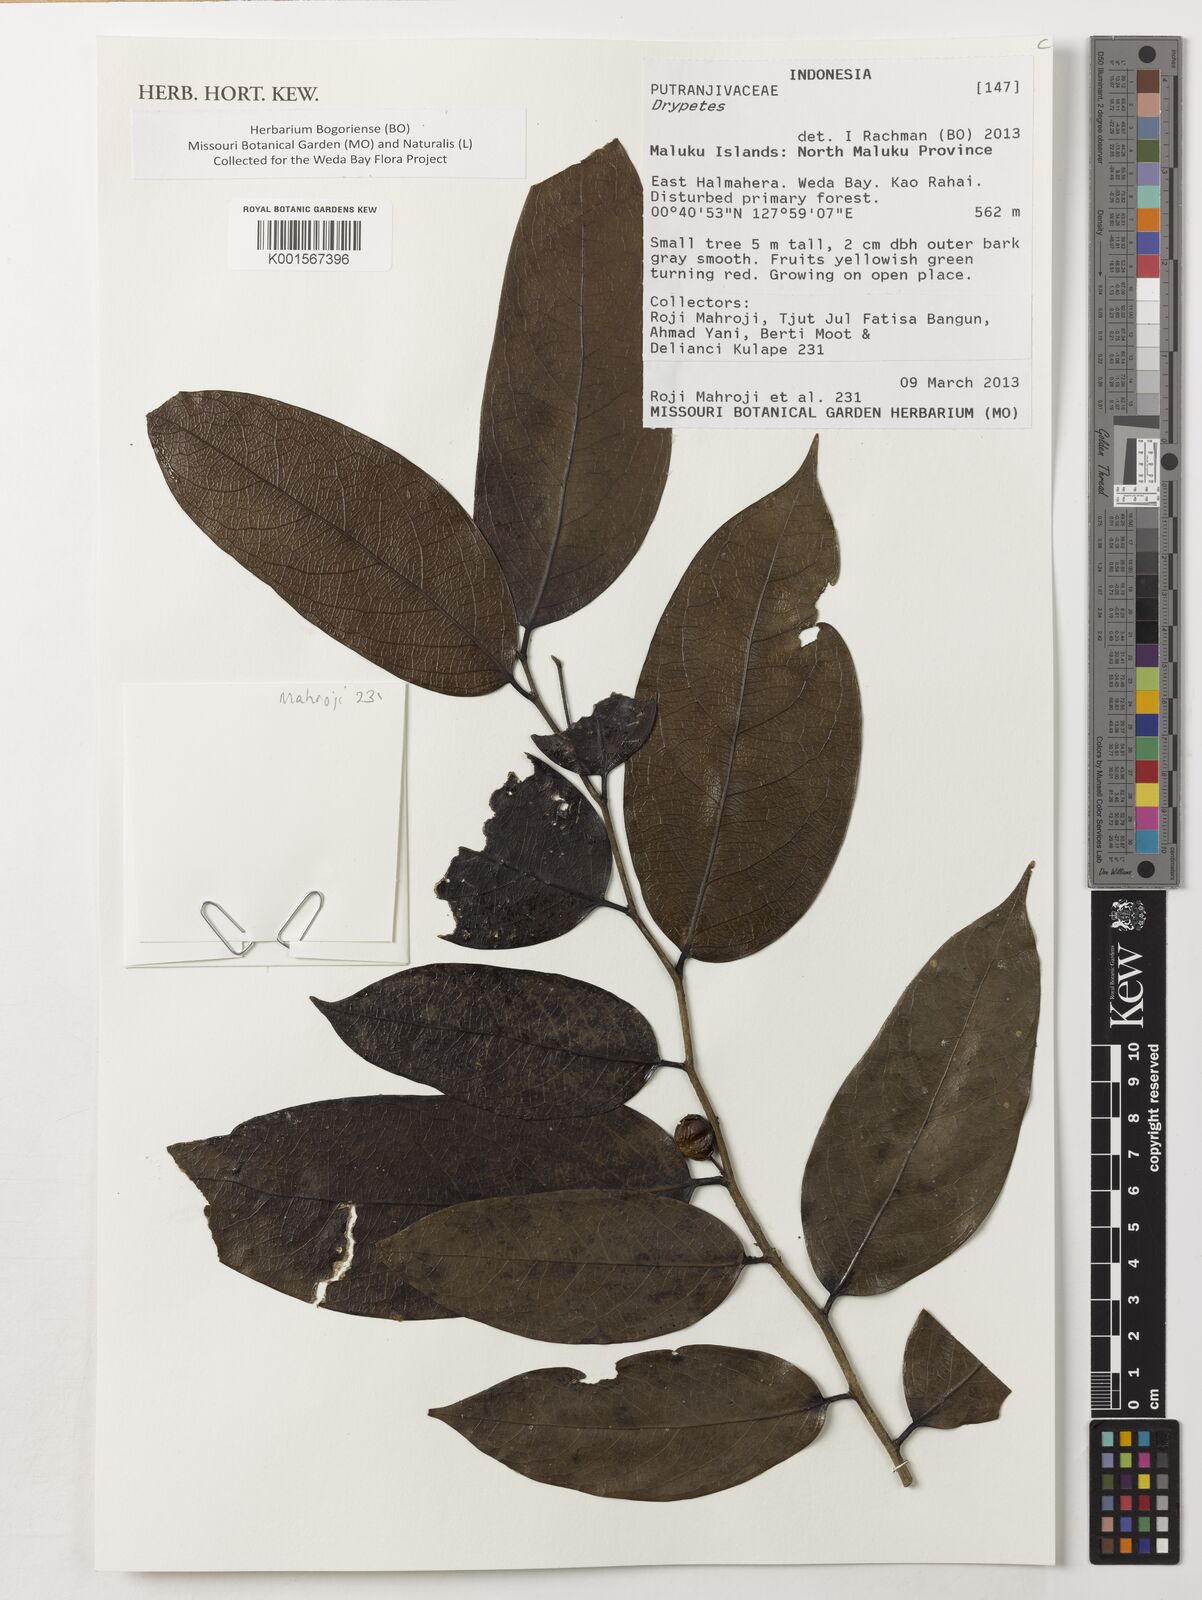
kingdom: Plantae
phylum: Tracheophyta
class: Magnoliopsida
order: Malpighiales
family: Putranjivaceae
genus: Drypetes
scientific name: Drypetes
